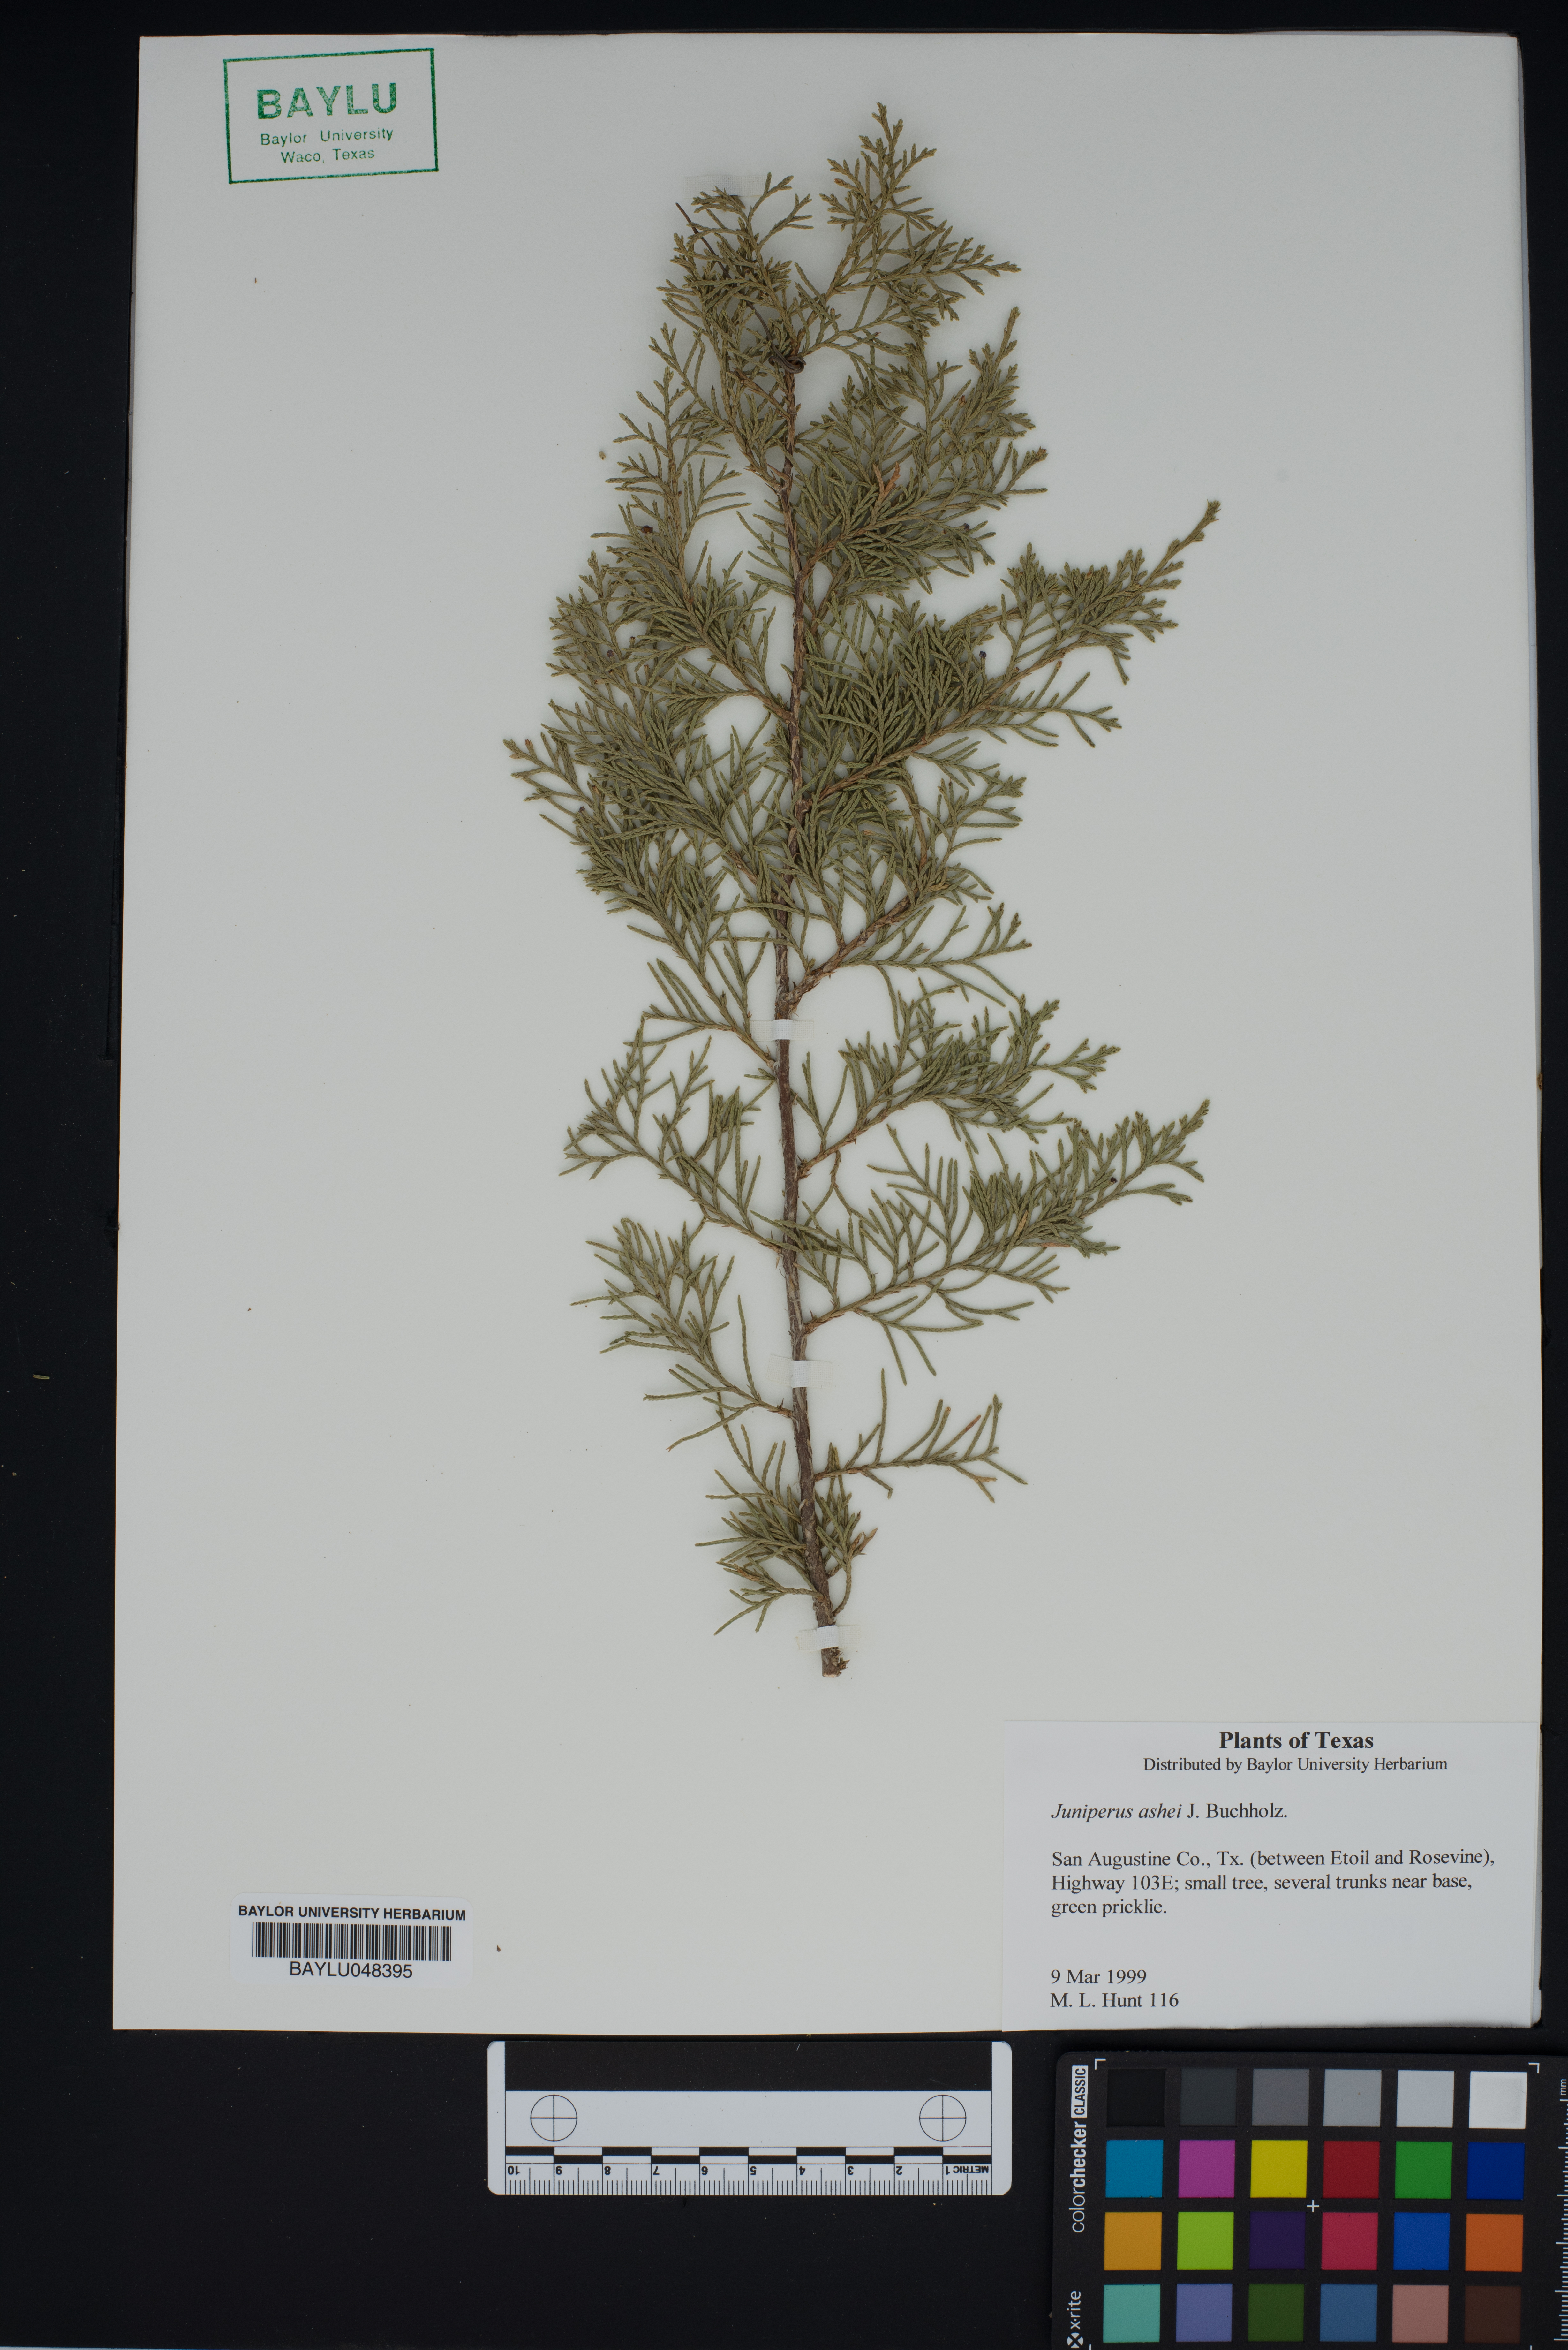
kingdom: Plantae
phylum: Tracheophyta
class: Pinopsida
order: Pinales
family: Cupressaceae
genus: Juniperus
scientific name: Juniperus ashei
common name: Mexican juniper
